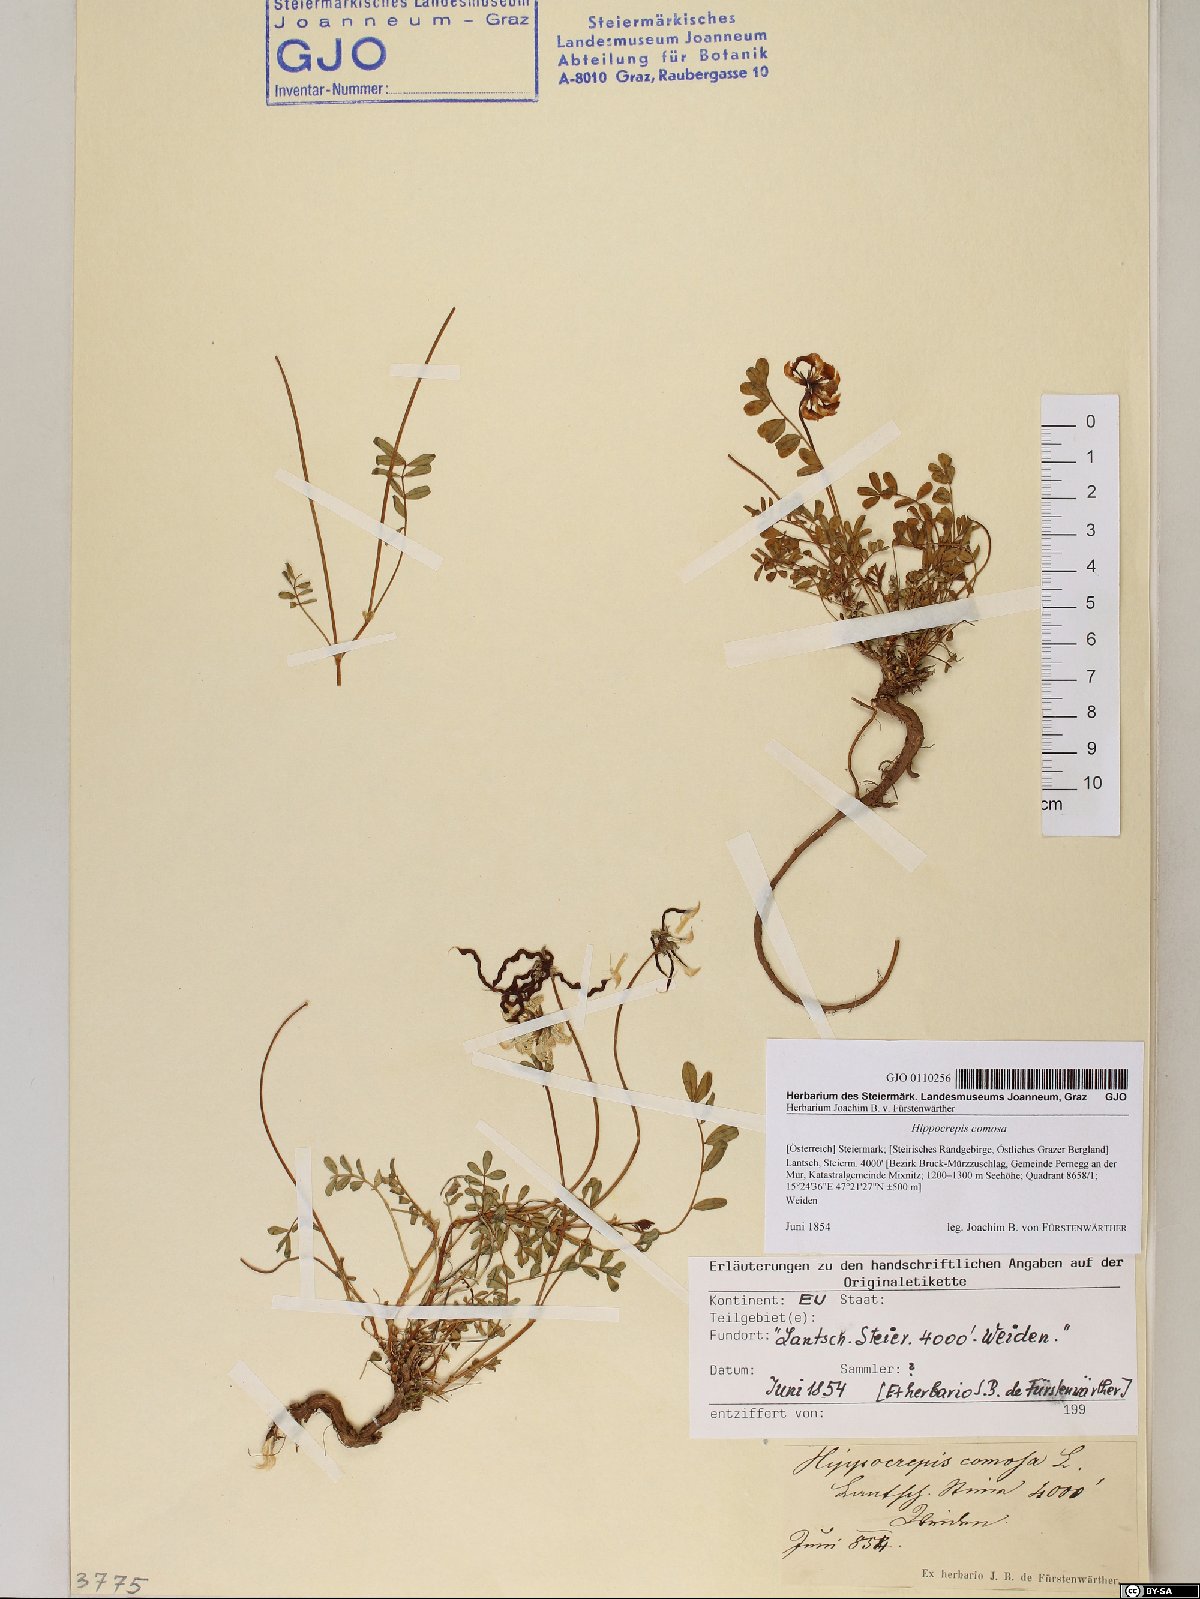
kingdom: Plantae
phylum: Tracheophyta
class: Magnoliopsida
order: Fabales
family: Fabaceae
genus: Hippocrepis
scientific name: Hippocrepis comosa
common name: Horseshoe vetch
